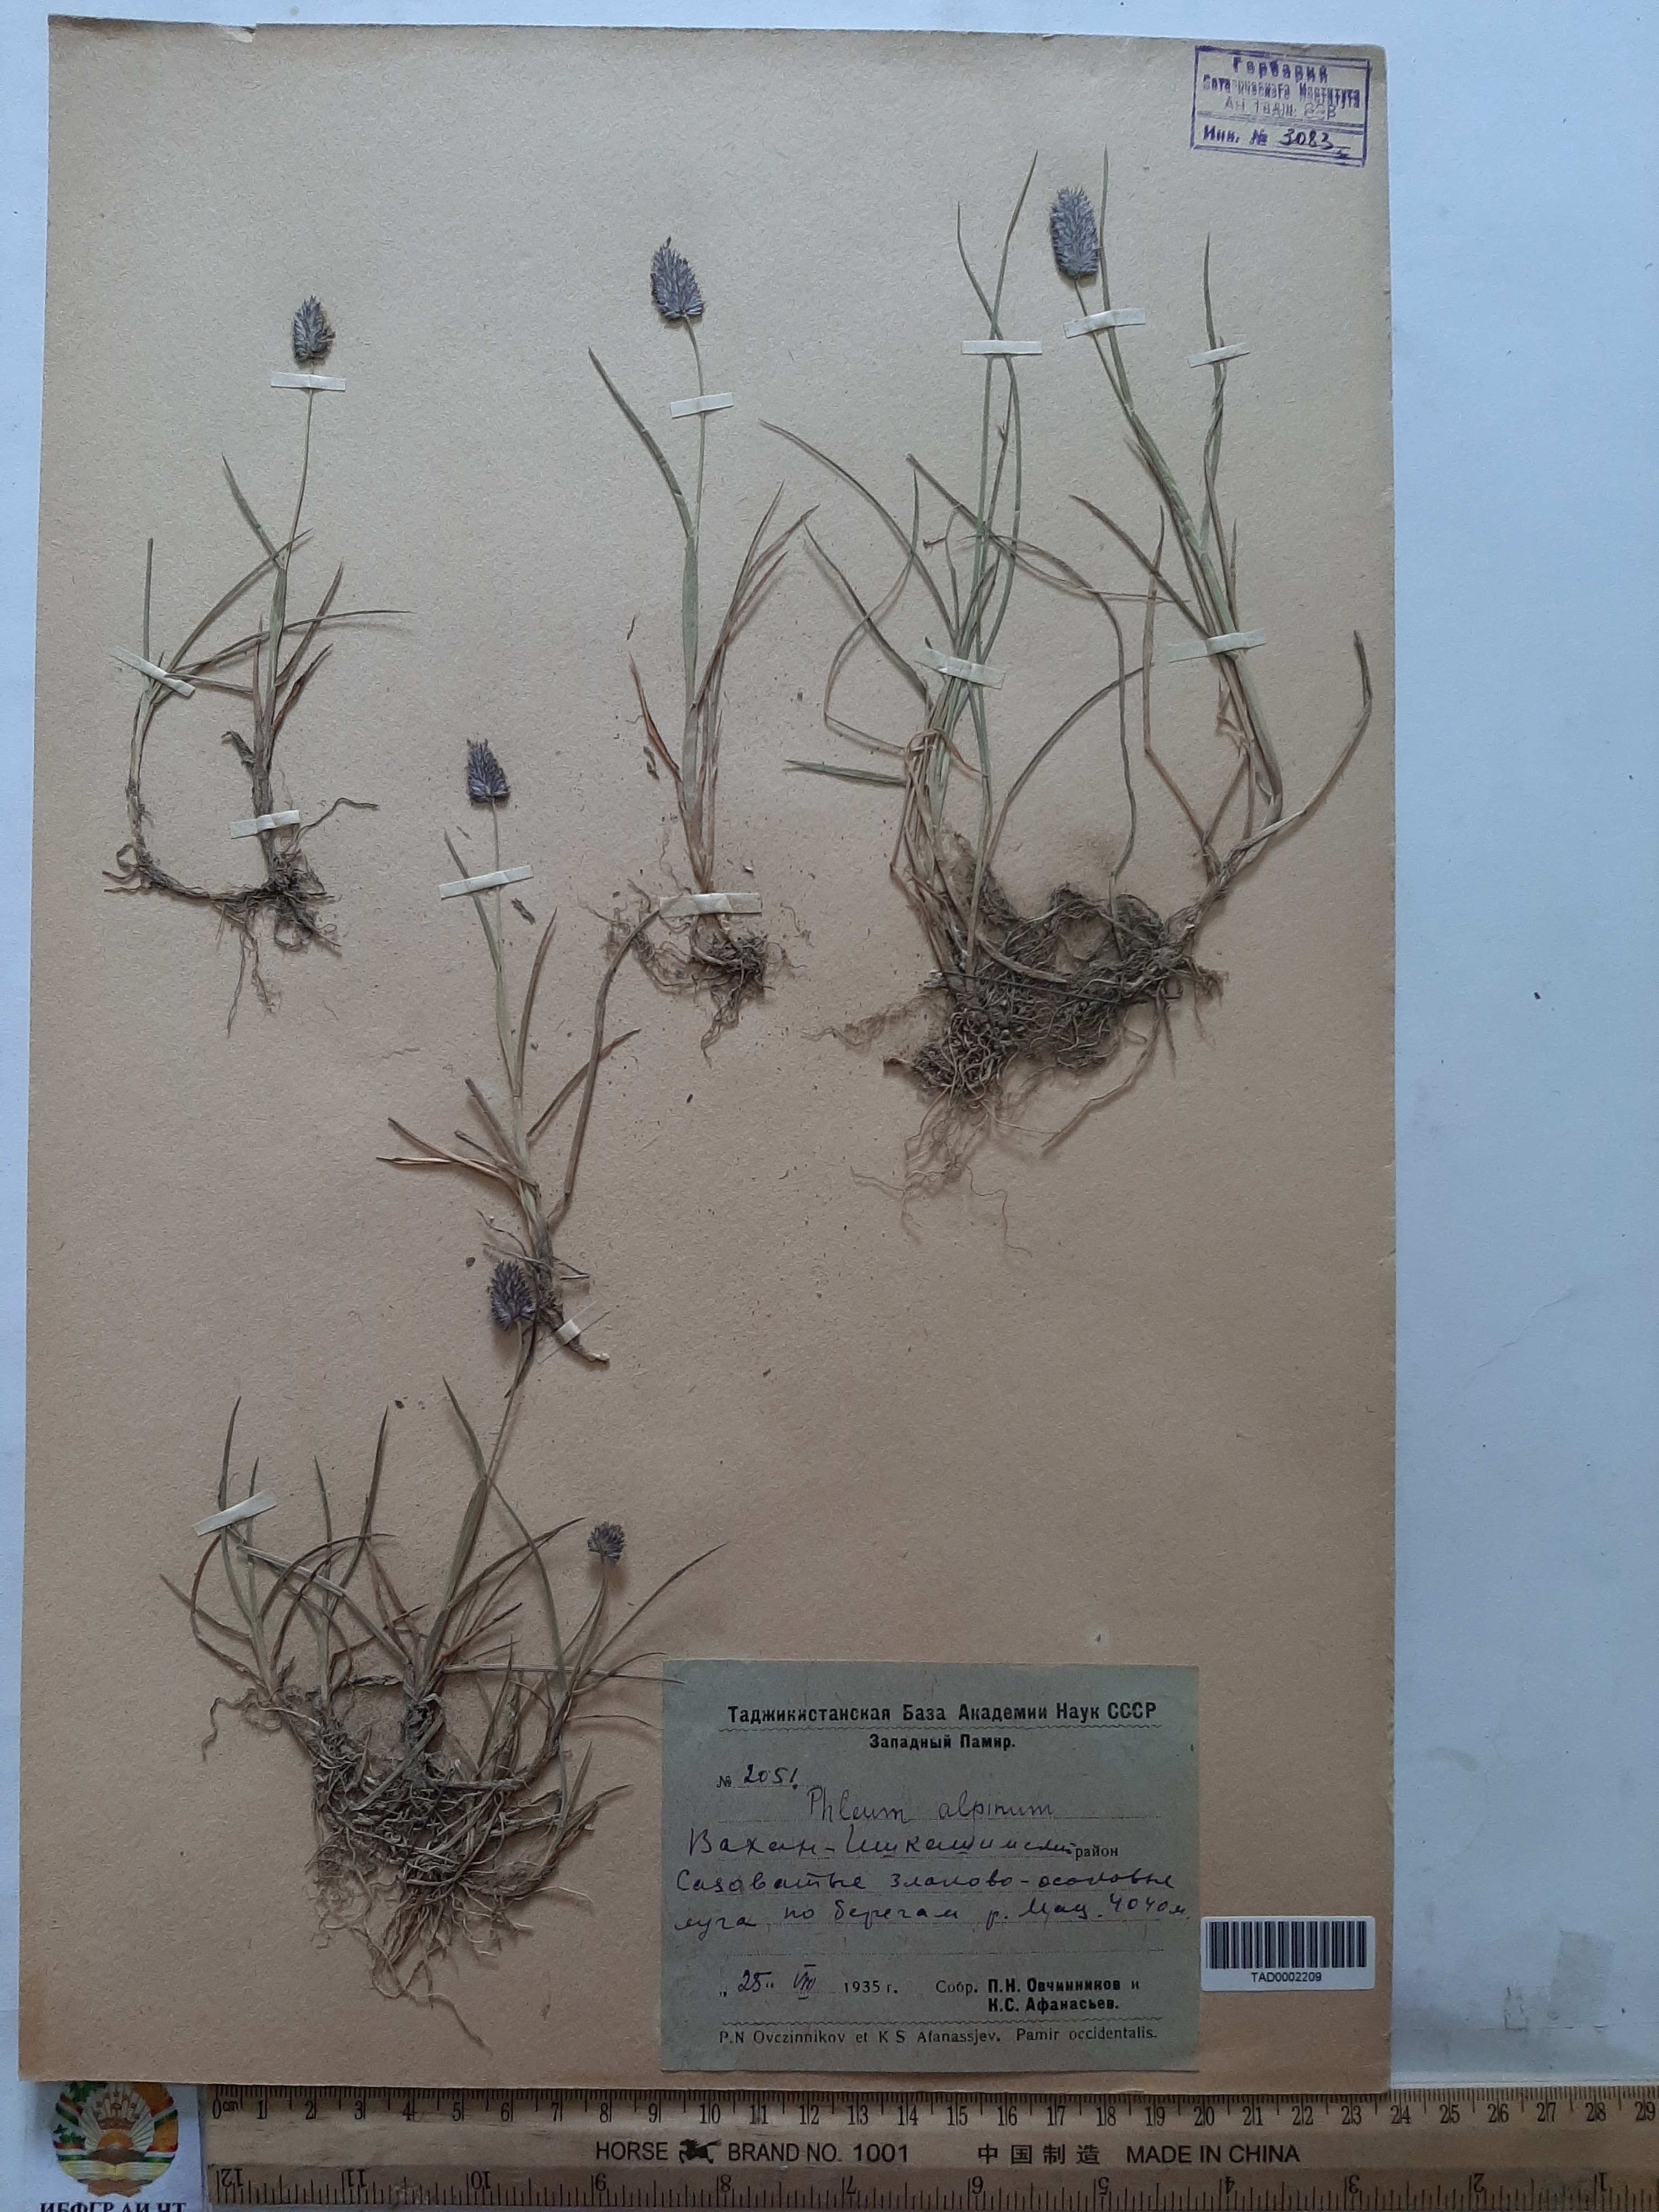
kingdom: Plantae
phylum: Tracheophyta
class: Liliopsida
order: Poales
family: Poaceae
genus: Phleum
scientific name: Phleum alpinum
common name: Alpine cat's-tail
